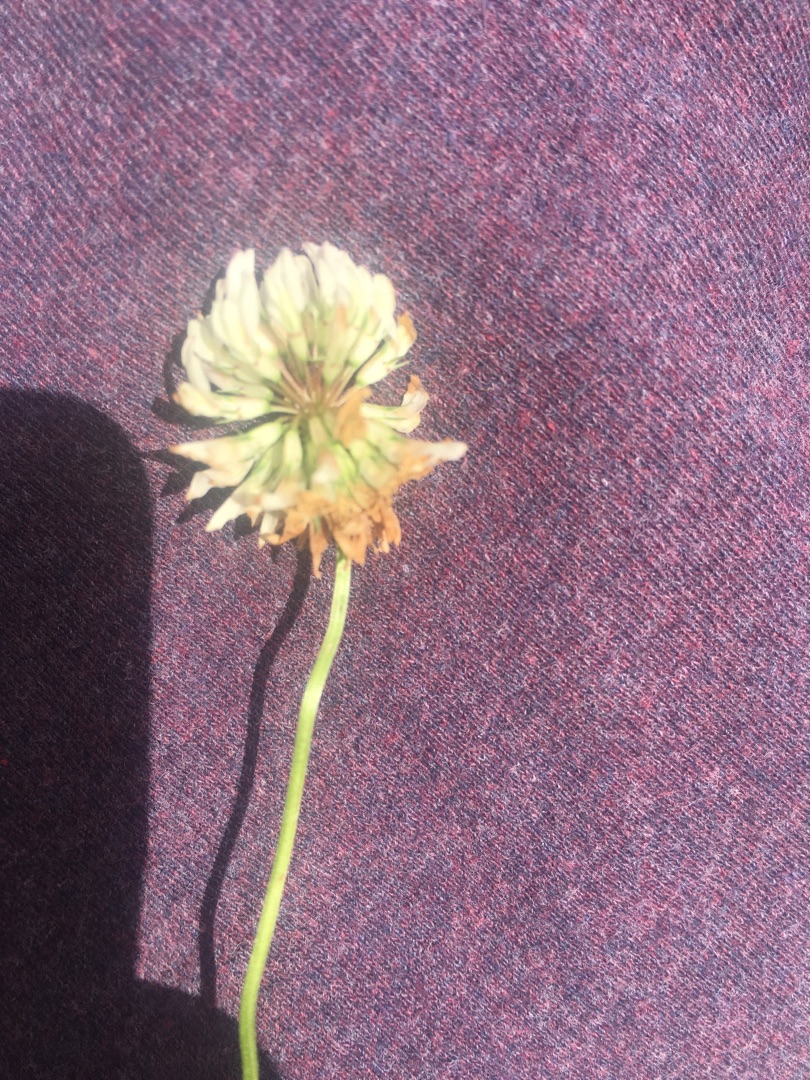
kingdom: Plantae
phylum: Tracheophyta
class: Magnoliopsida
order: Fabales
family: Fabaceae
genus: Trifolium
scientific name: Trifolium repens
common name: Hvid-kløver
